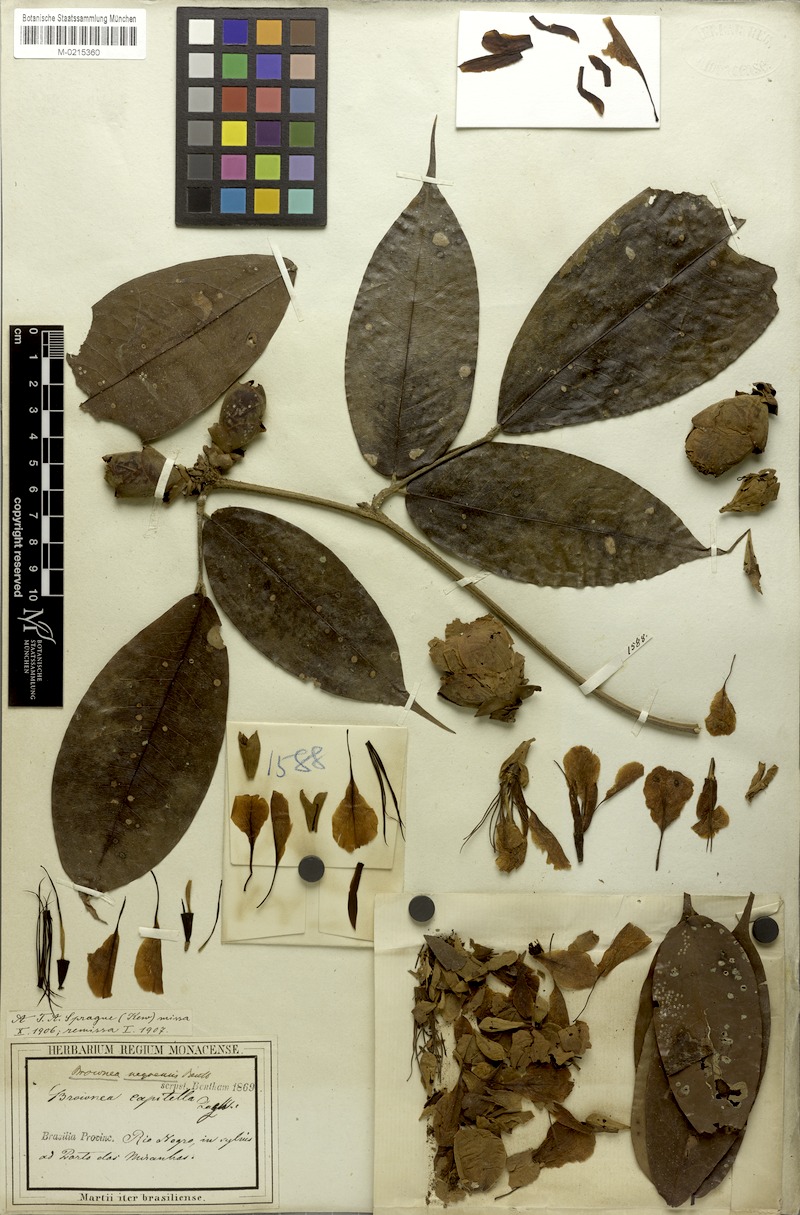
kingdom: Plantae
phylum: Tracheophyta
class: Magnoliopsida
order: Fabales
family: Fabaceae
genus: Brownea
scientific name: Brownea negrensis
